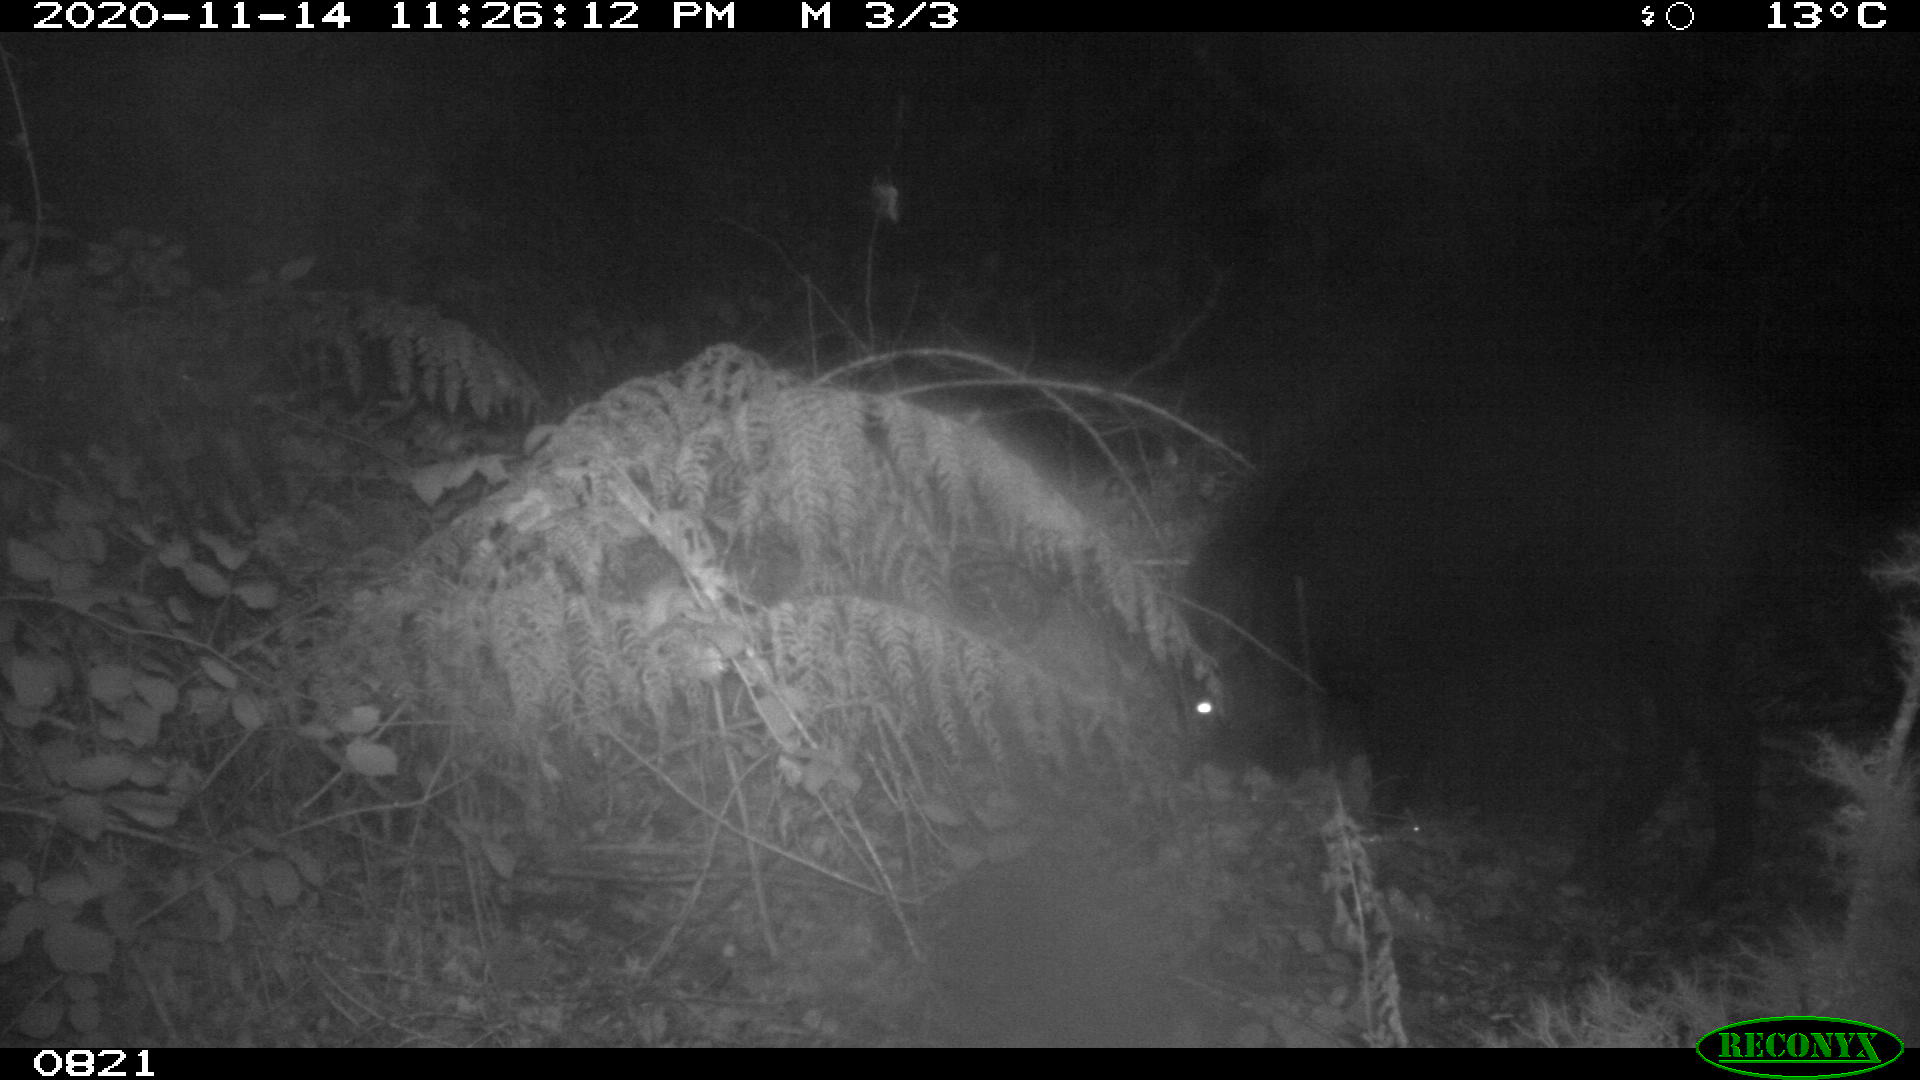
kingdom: Animalia
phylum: Chordata
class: Mammalia
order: Artiodactyla
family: Suidae
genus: Sus
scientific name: Sus scrofa
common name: Wild boar
